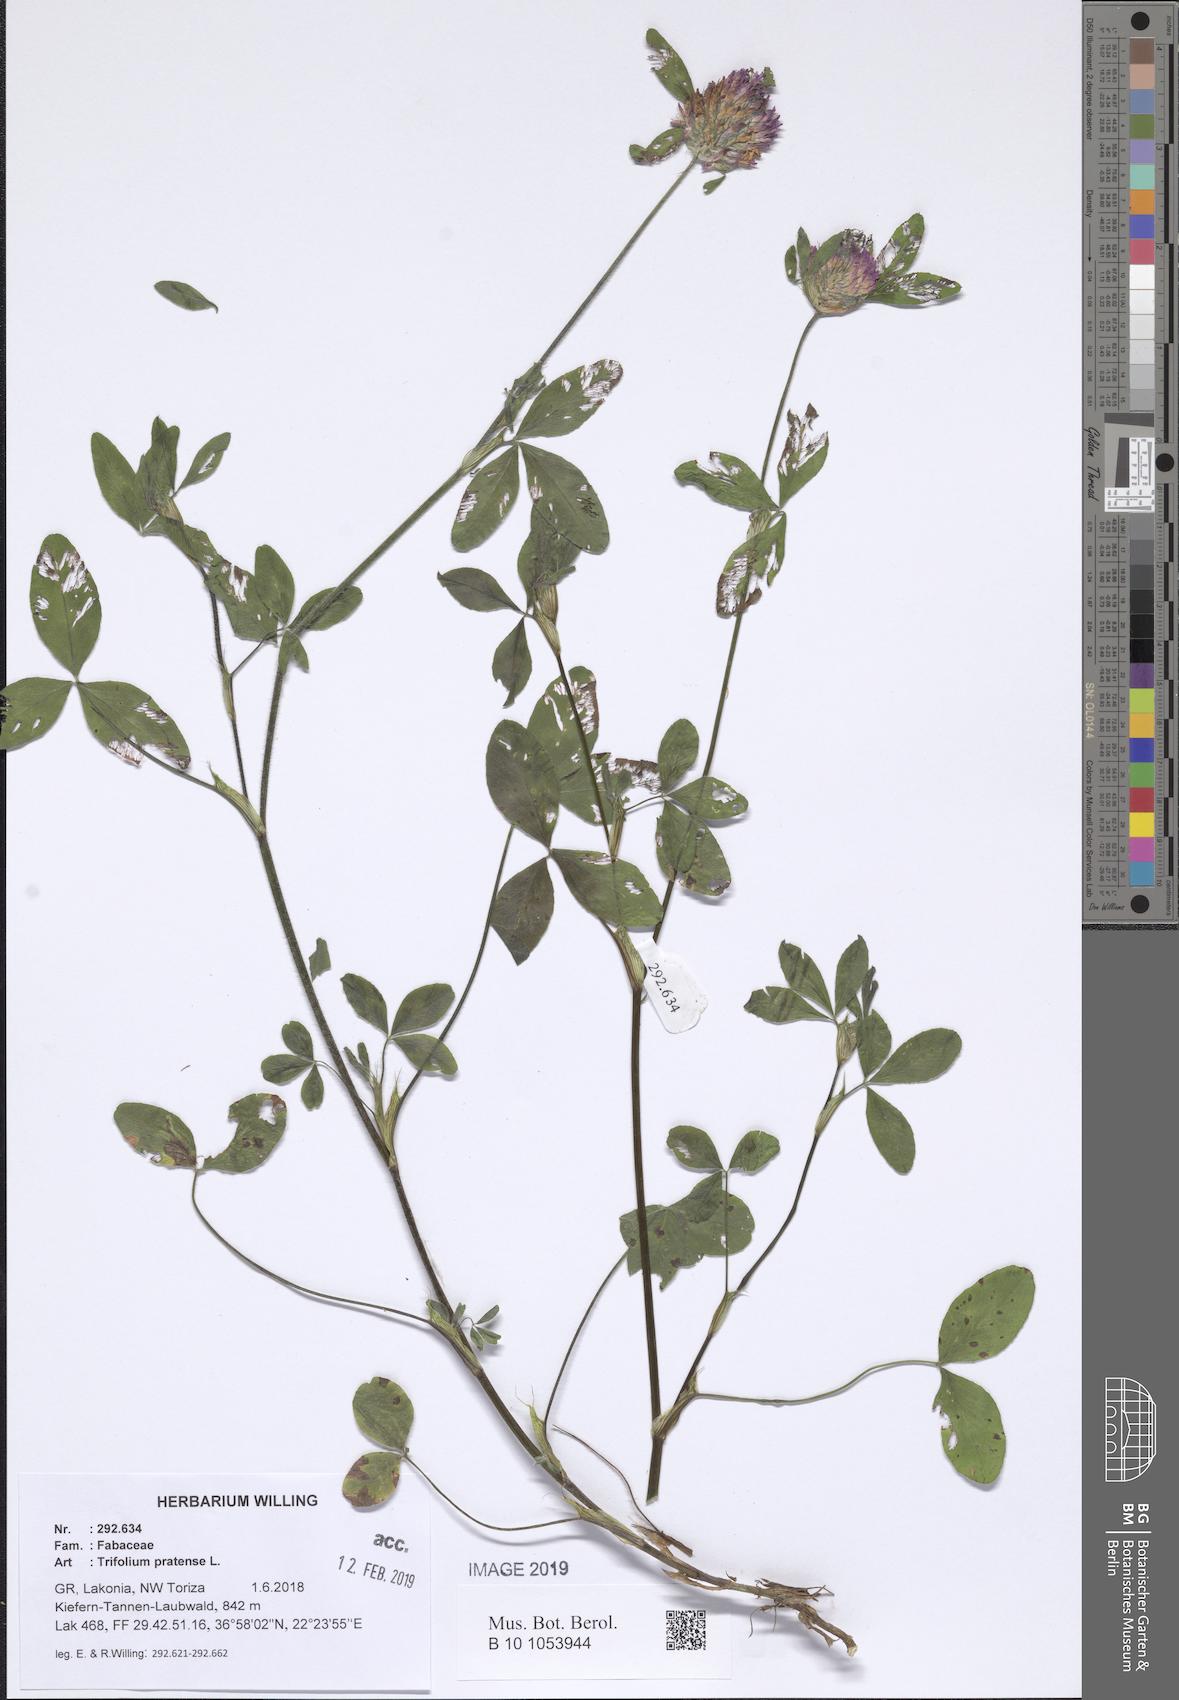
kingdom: Plantae
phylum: Tracheophyta
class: Magnoliopsida
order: Fabales
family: Fabaceae
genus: Trifolium
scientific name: Trifolium pratense
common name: Red clover
